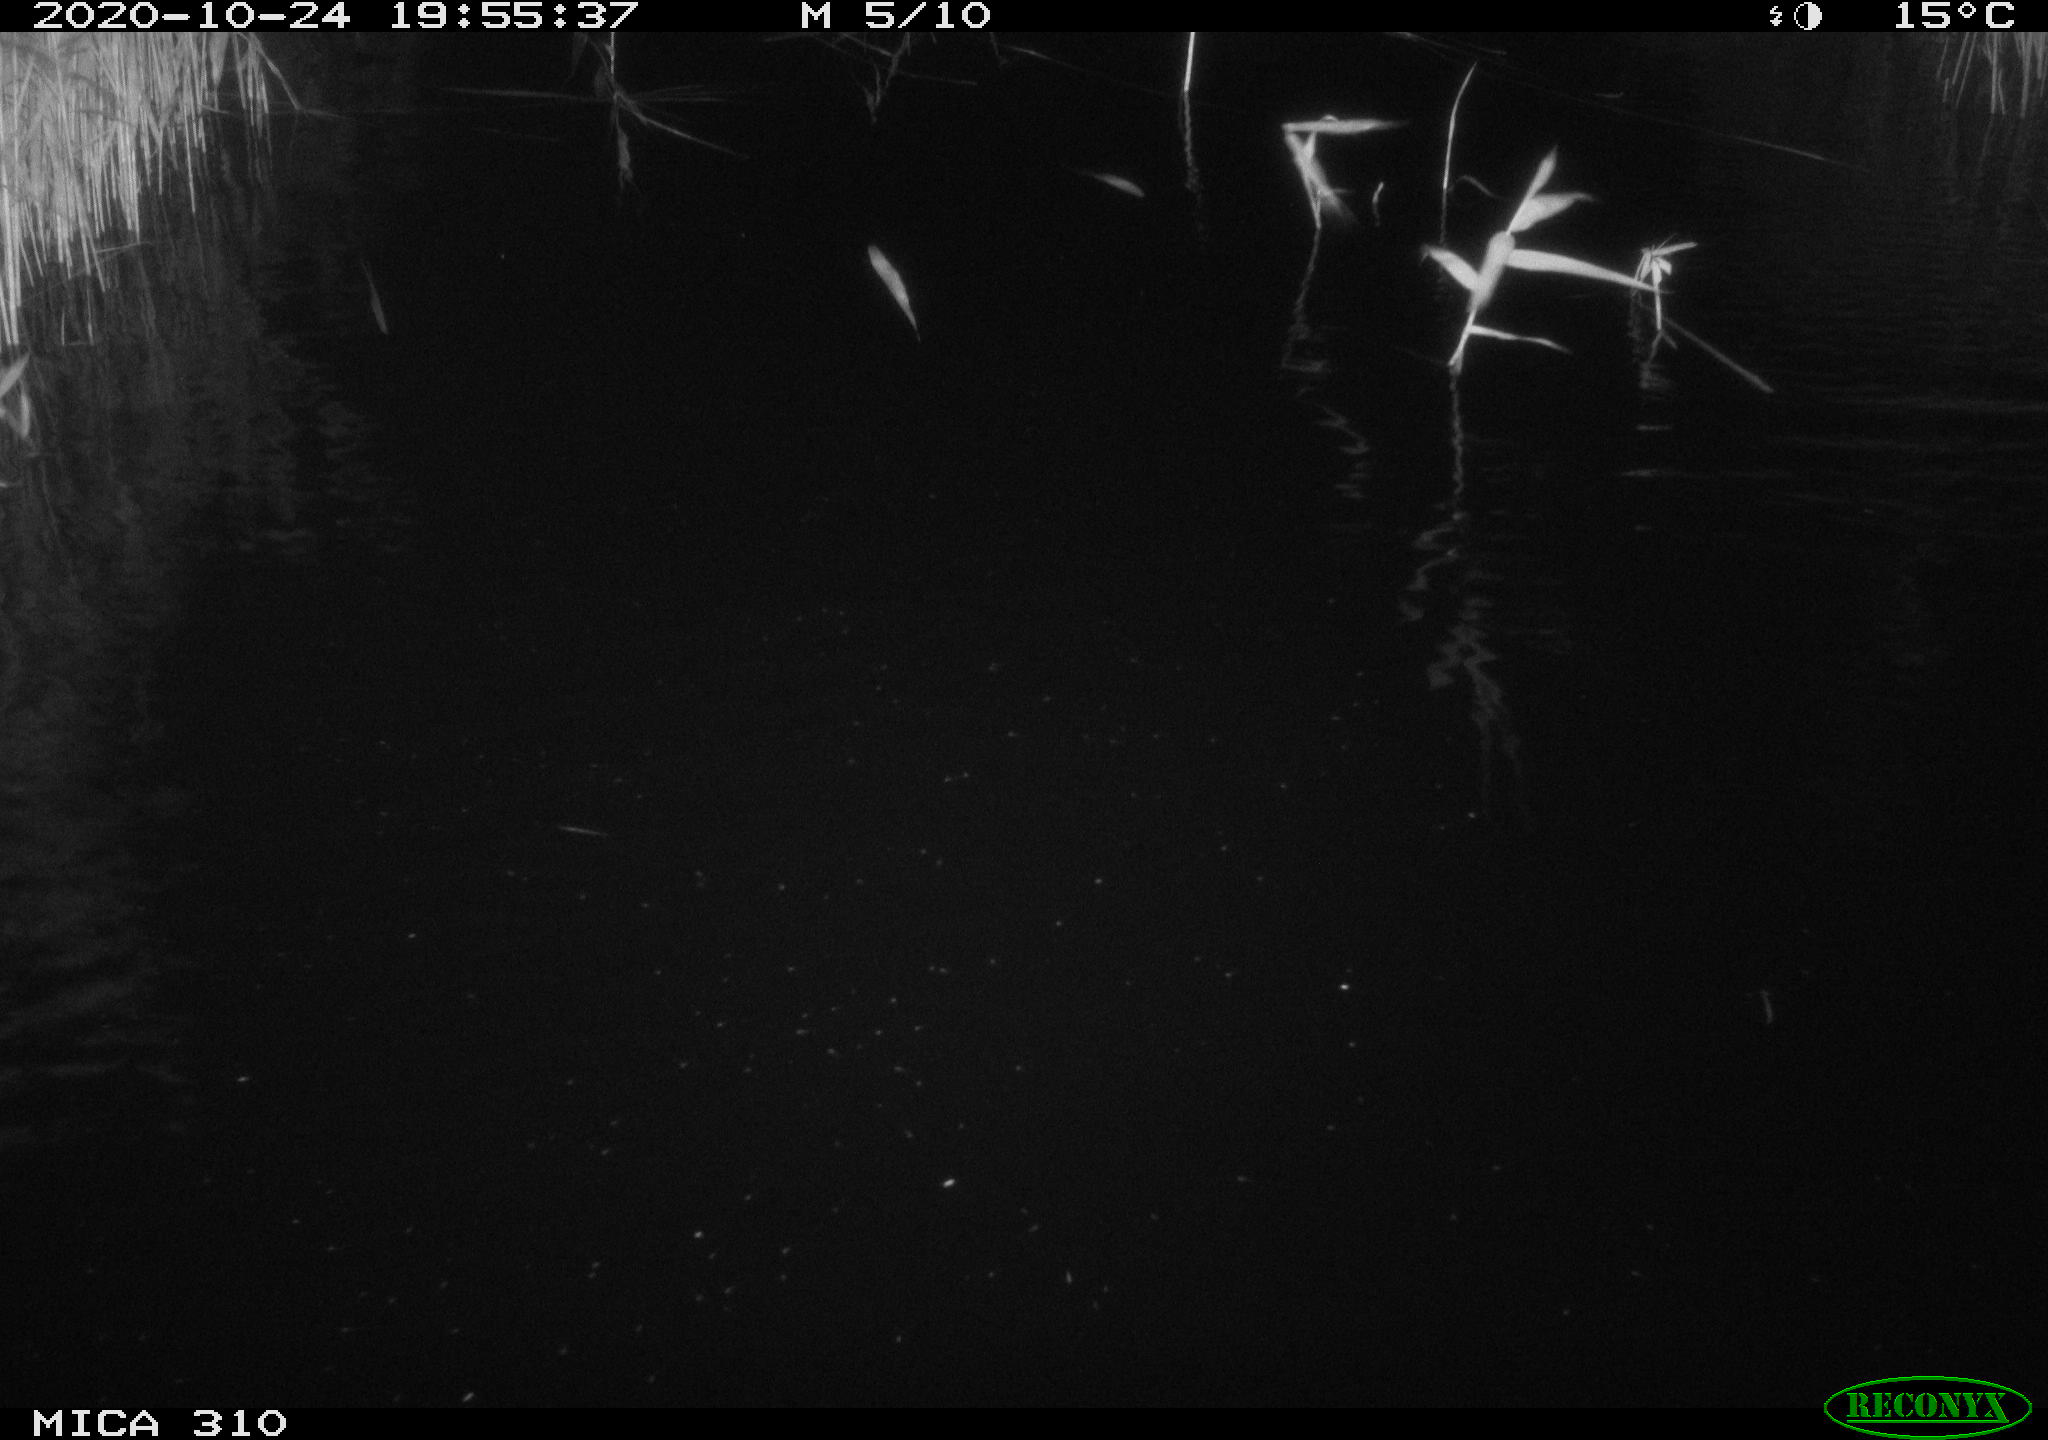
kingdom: Animalia
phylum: Chordata
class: Mammalia
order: Rodentia
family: Muridae
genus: Rattus
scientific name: Rattus norvegicus
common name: Brown rat
